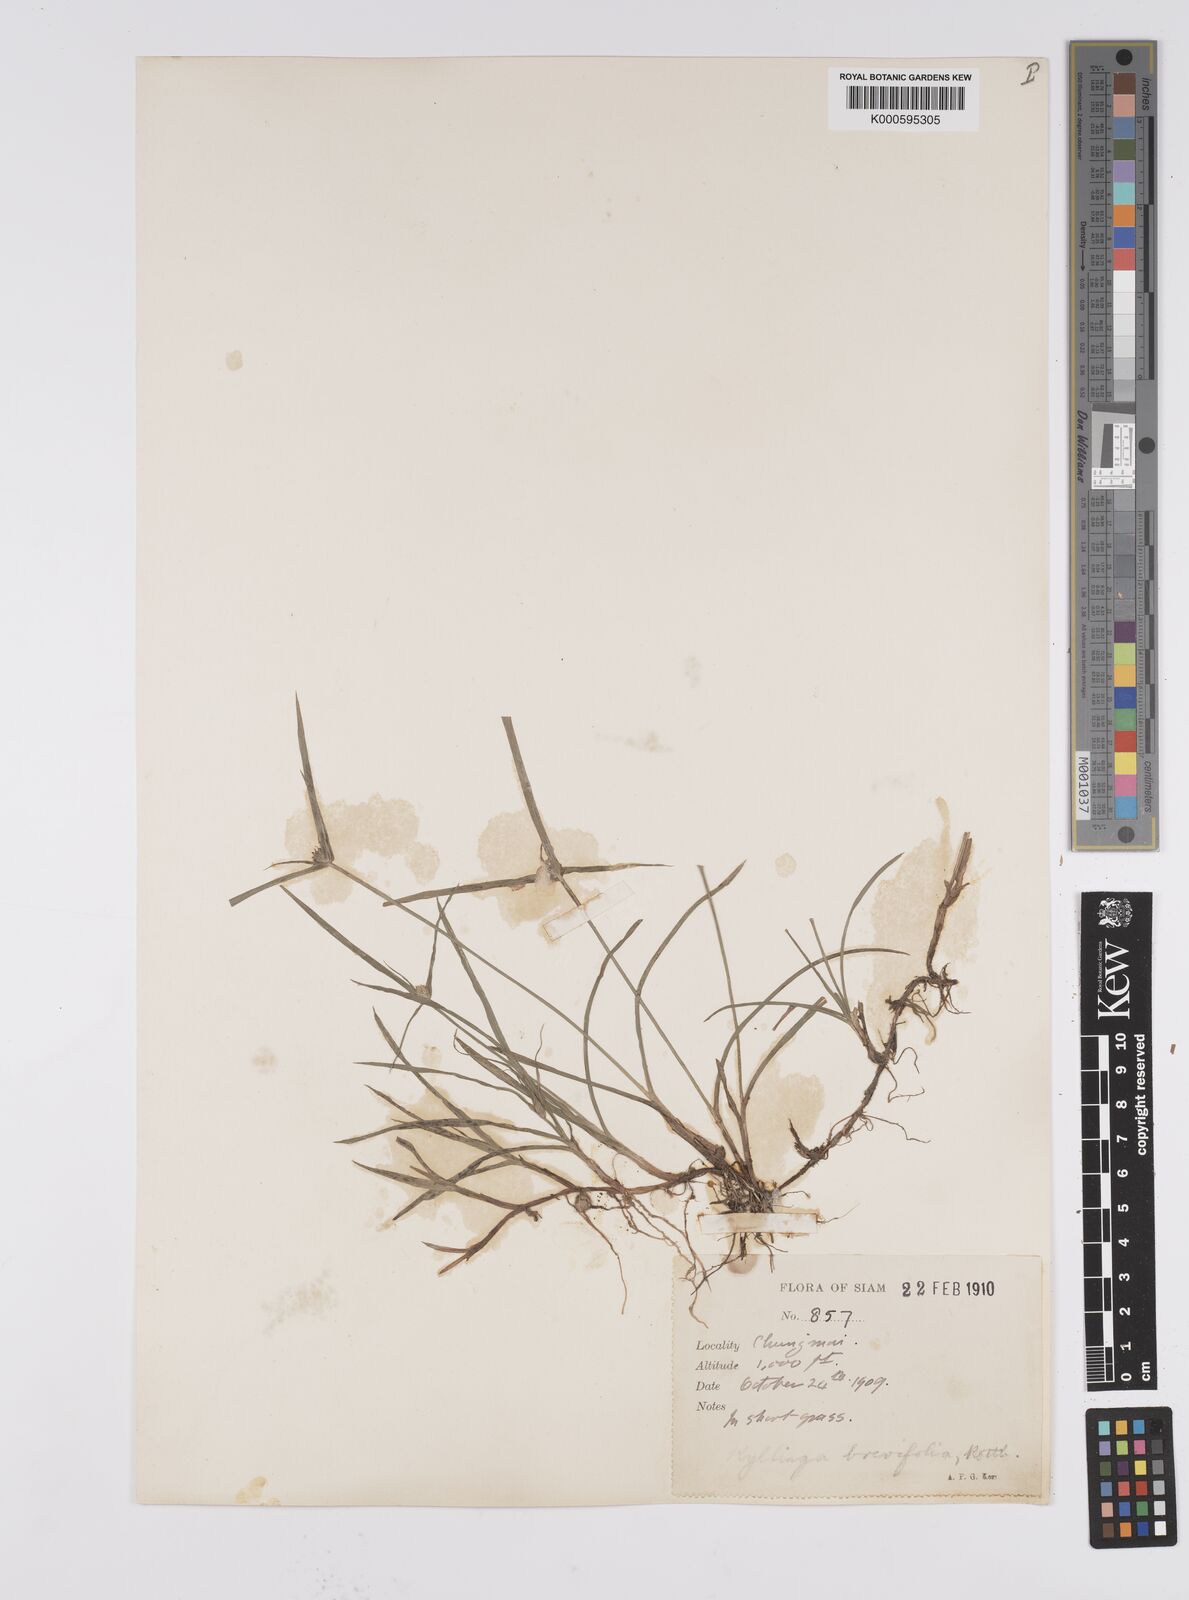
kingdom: Plantae
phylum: Tracheophyta
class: Liliopsida
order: Poales
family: Cyperaceae
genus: Cyperus
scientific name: Cyperus brevifolius
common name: Globe kyllinga
